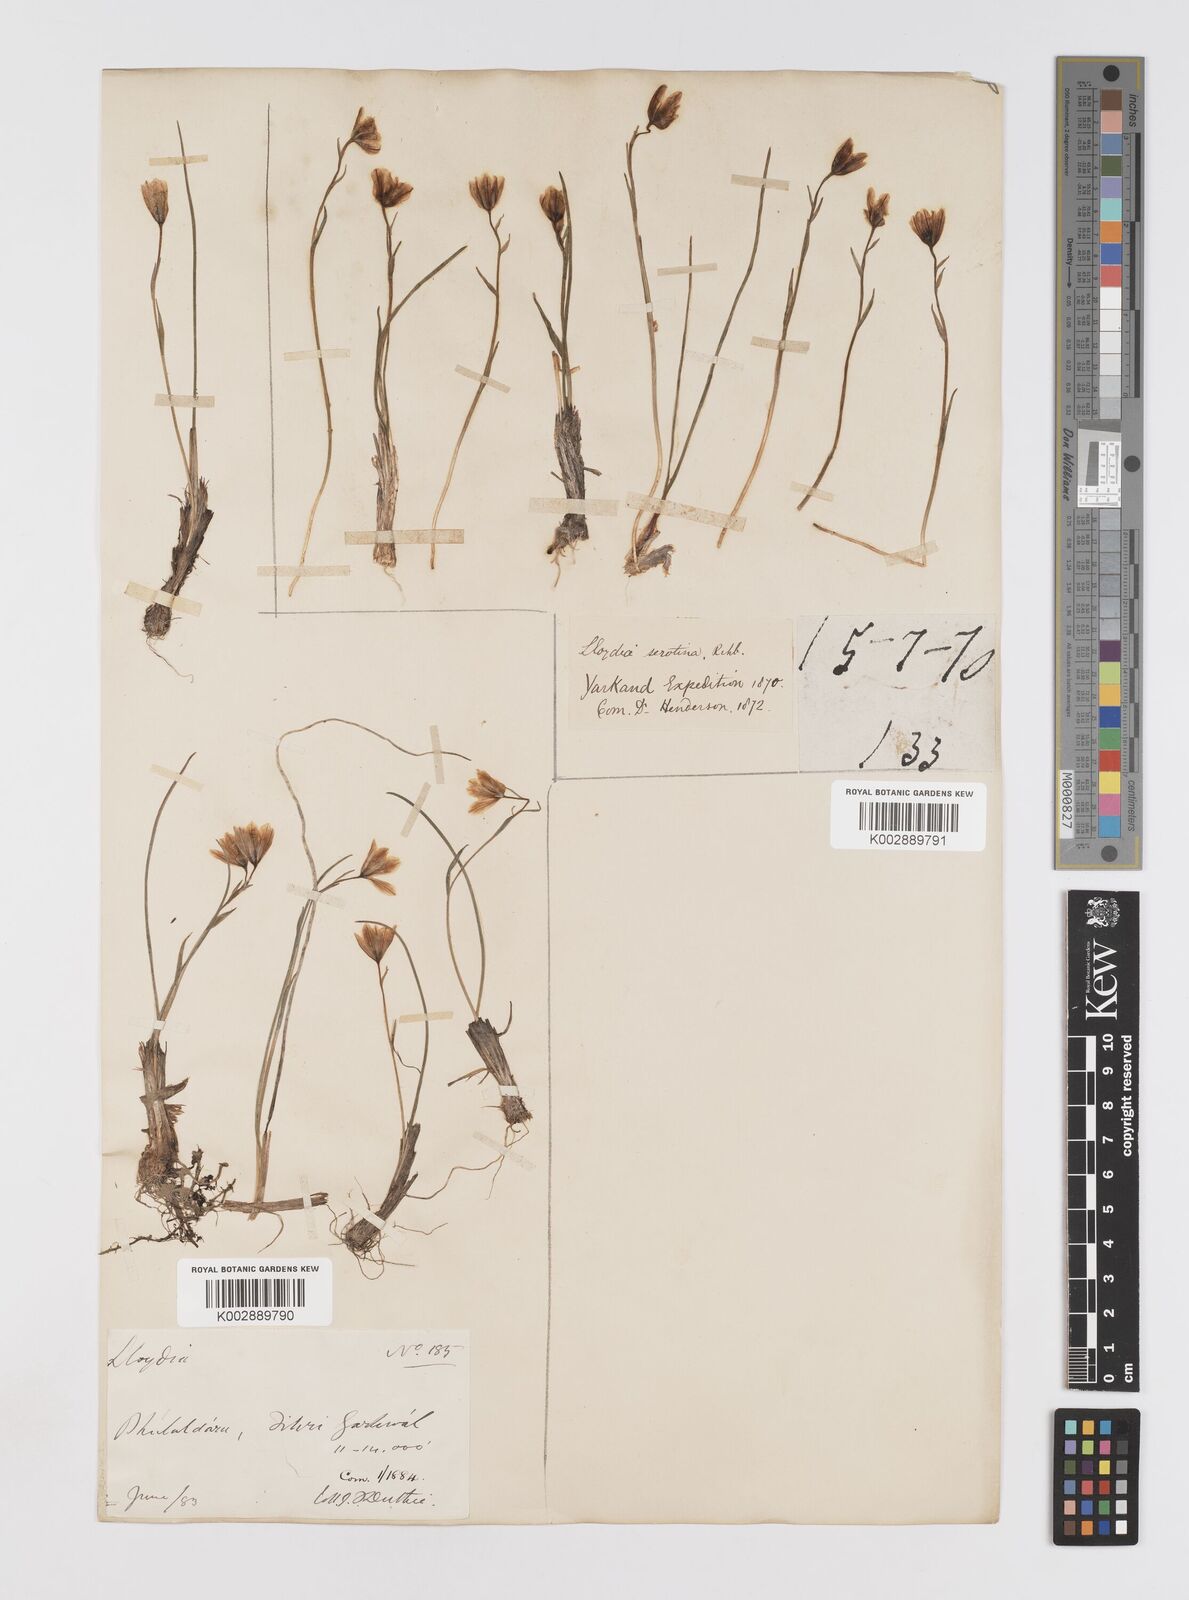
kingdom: Plantae
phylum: Tracheophyta
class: Liliopsida
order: Liliales
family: Liliaceae
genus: Gagea
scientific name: Gagea serotina
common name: Snowdon lily
